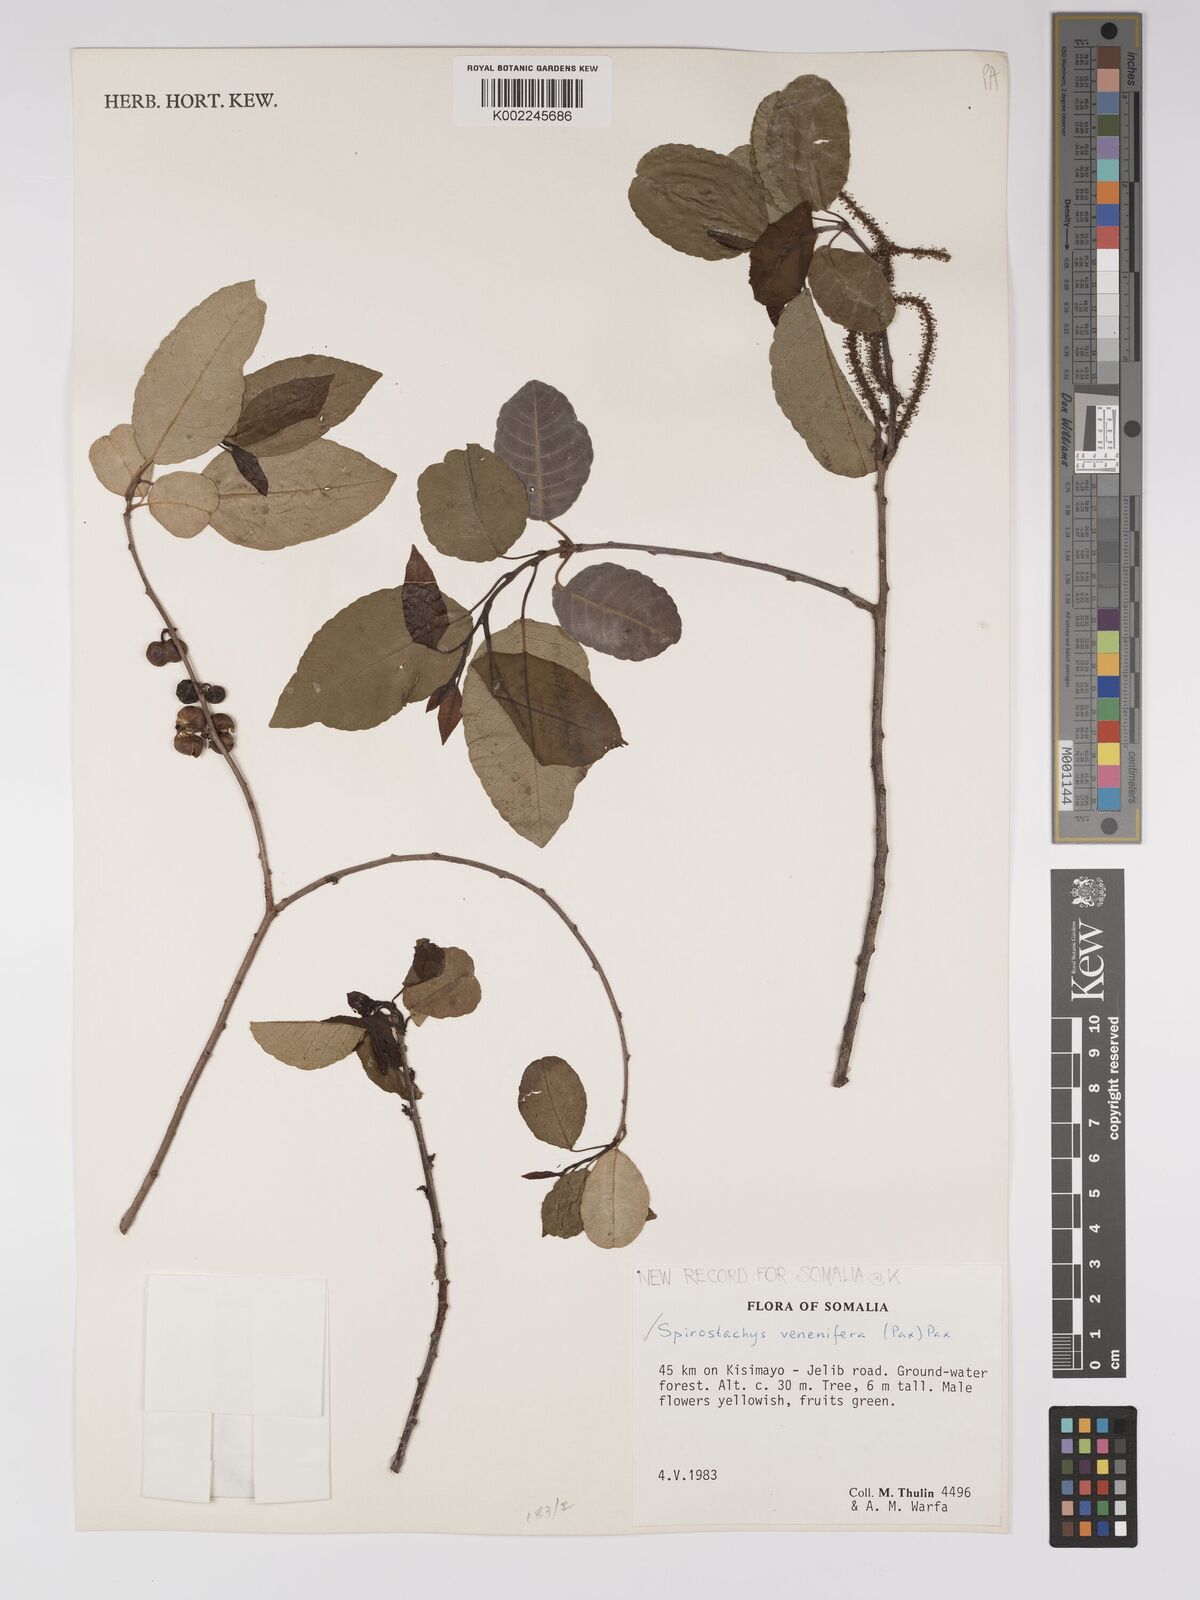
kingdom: Plantae
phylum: Tracheophyta
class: Magnoliopsida
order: Malpighiales
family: Euphorbiaceae
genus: Spirostachys
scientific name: Spirostachys venenifera
